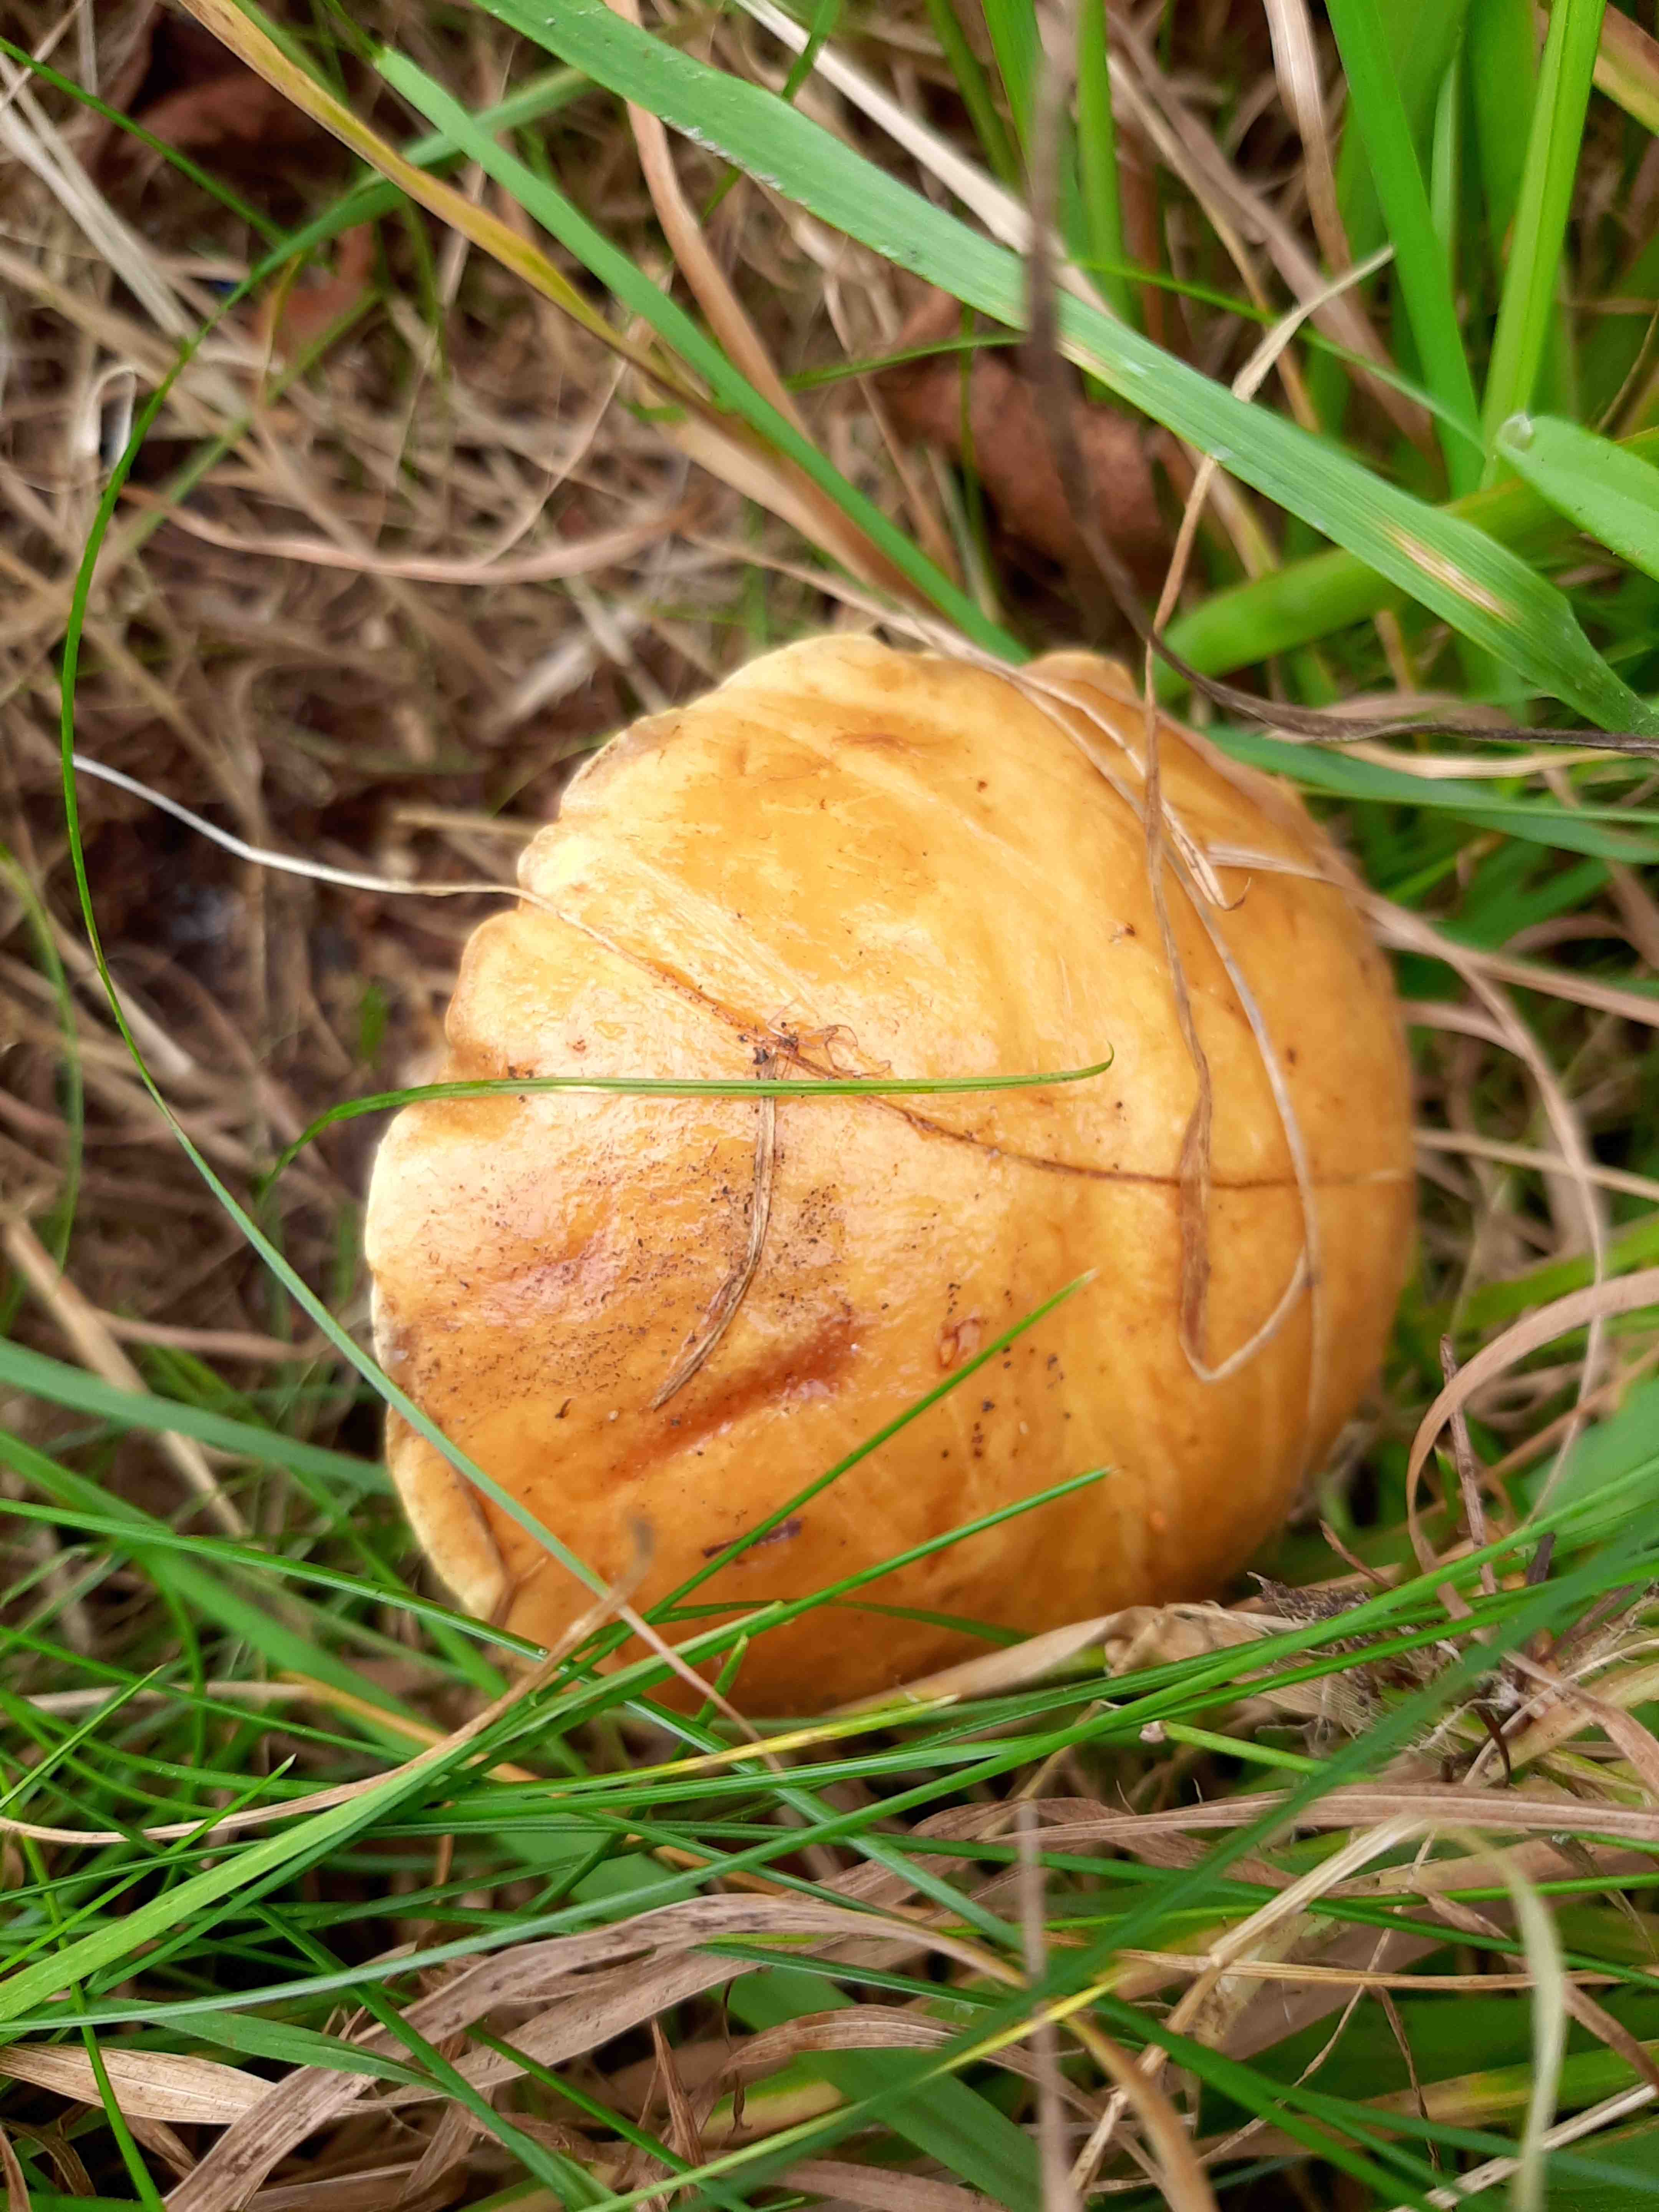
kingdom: Fungi
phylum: Basidiomycota
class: Agaricomycetes
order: Boletales
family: Suillaceae
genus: Suillus
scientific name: Suillus grevillei
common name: lærke-slimrørhat
